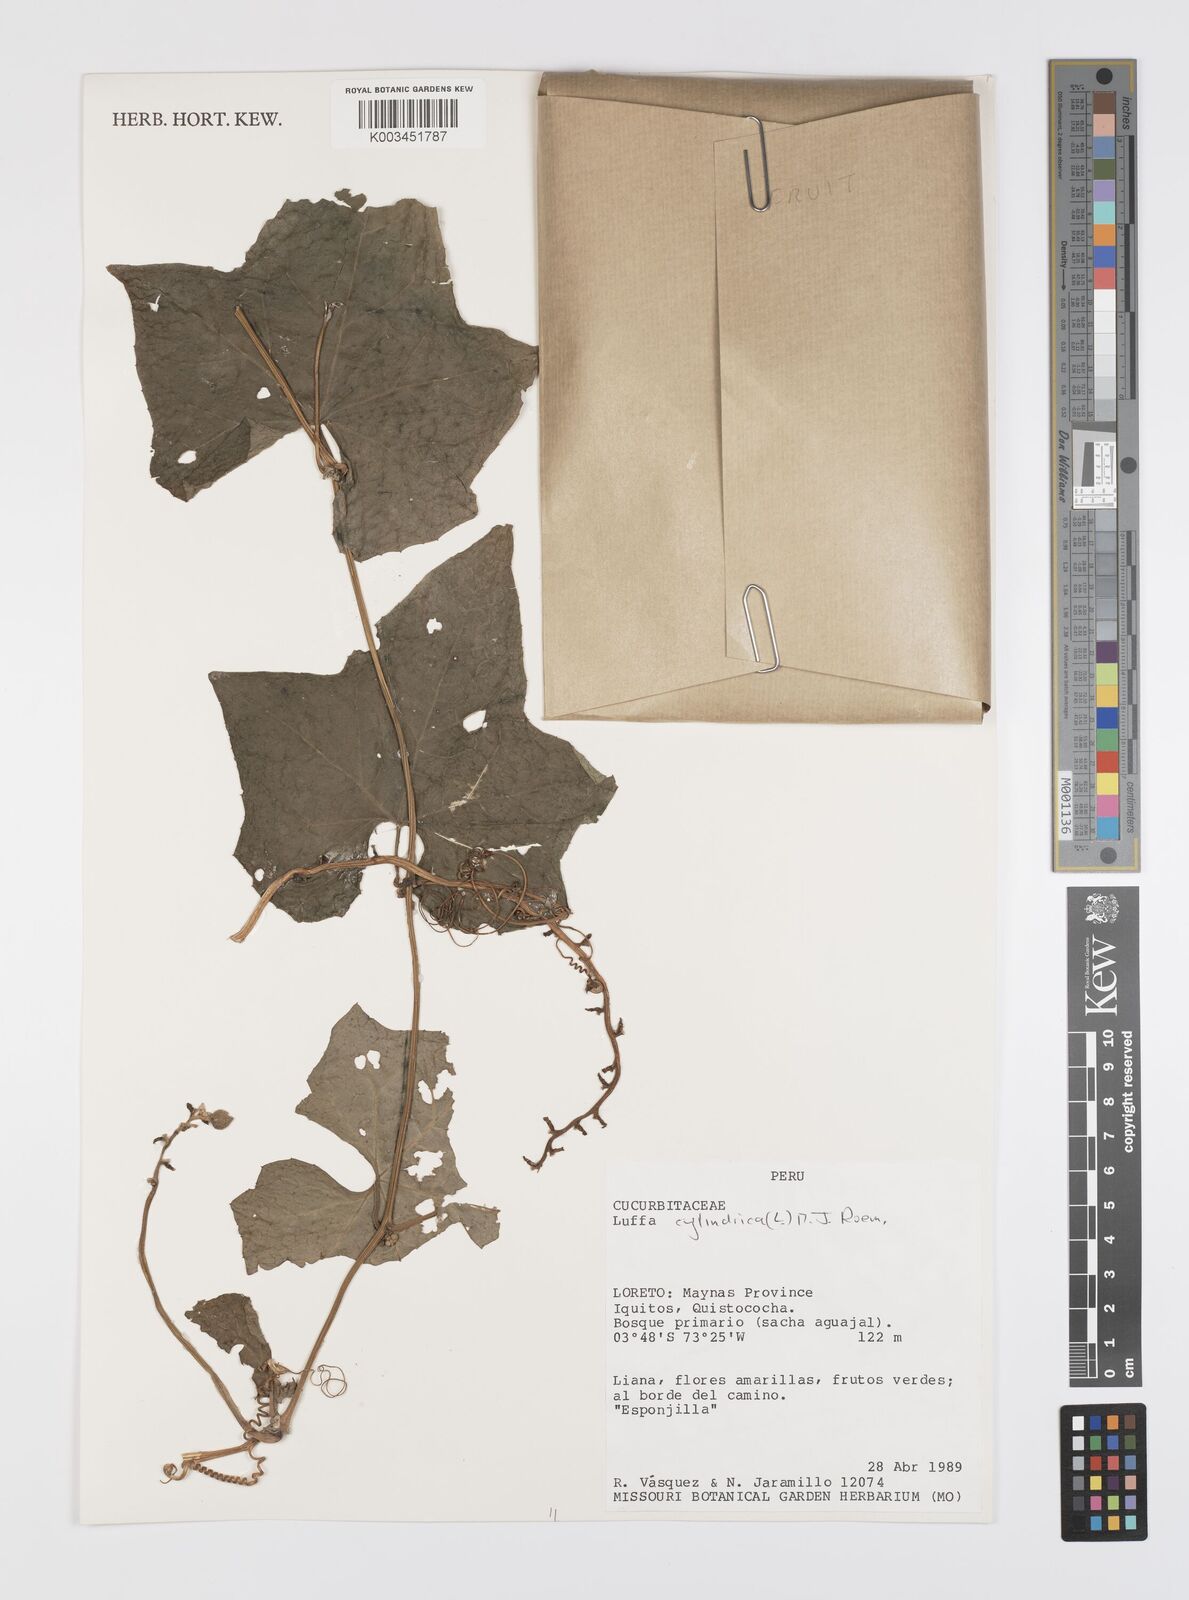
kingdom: Plantae
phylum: Tracheophyta
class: Magnoliopsida
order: Cucurbitales
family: Cucurbitaceae
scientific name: Cucurbitaceae
